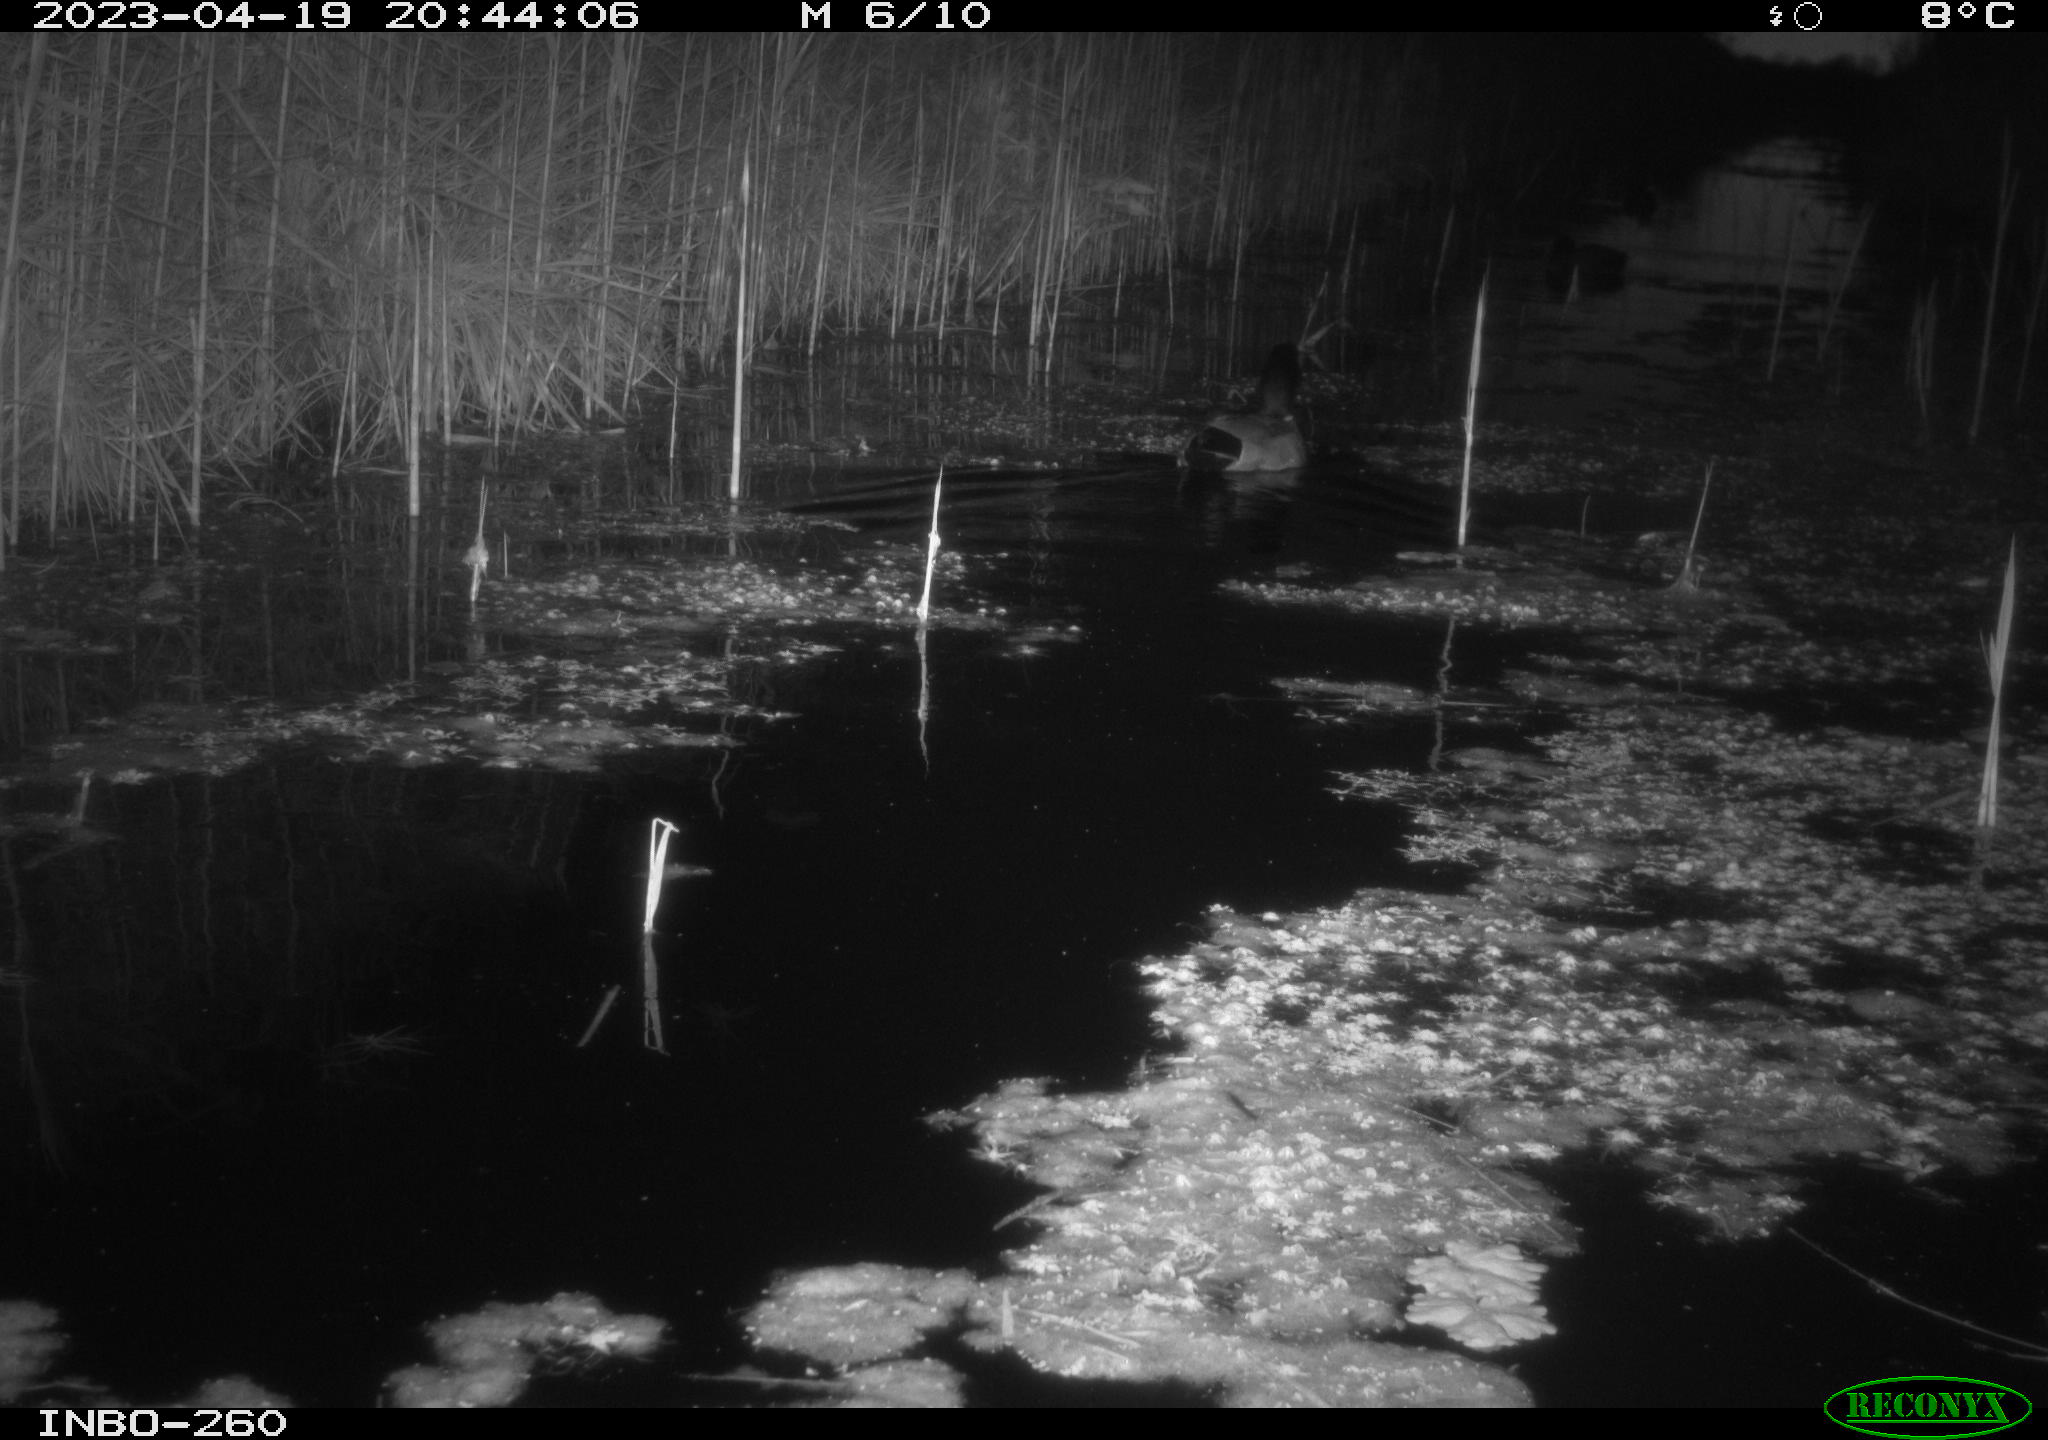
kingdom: Animalia
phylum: Chordata
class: Aves
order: Anseriformes
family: Anatidae
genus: Anas
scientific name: Anas
